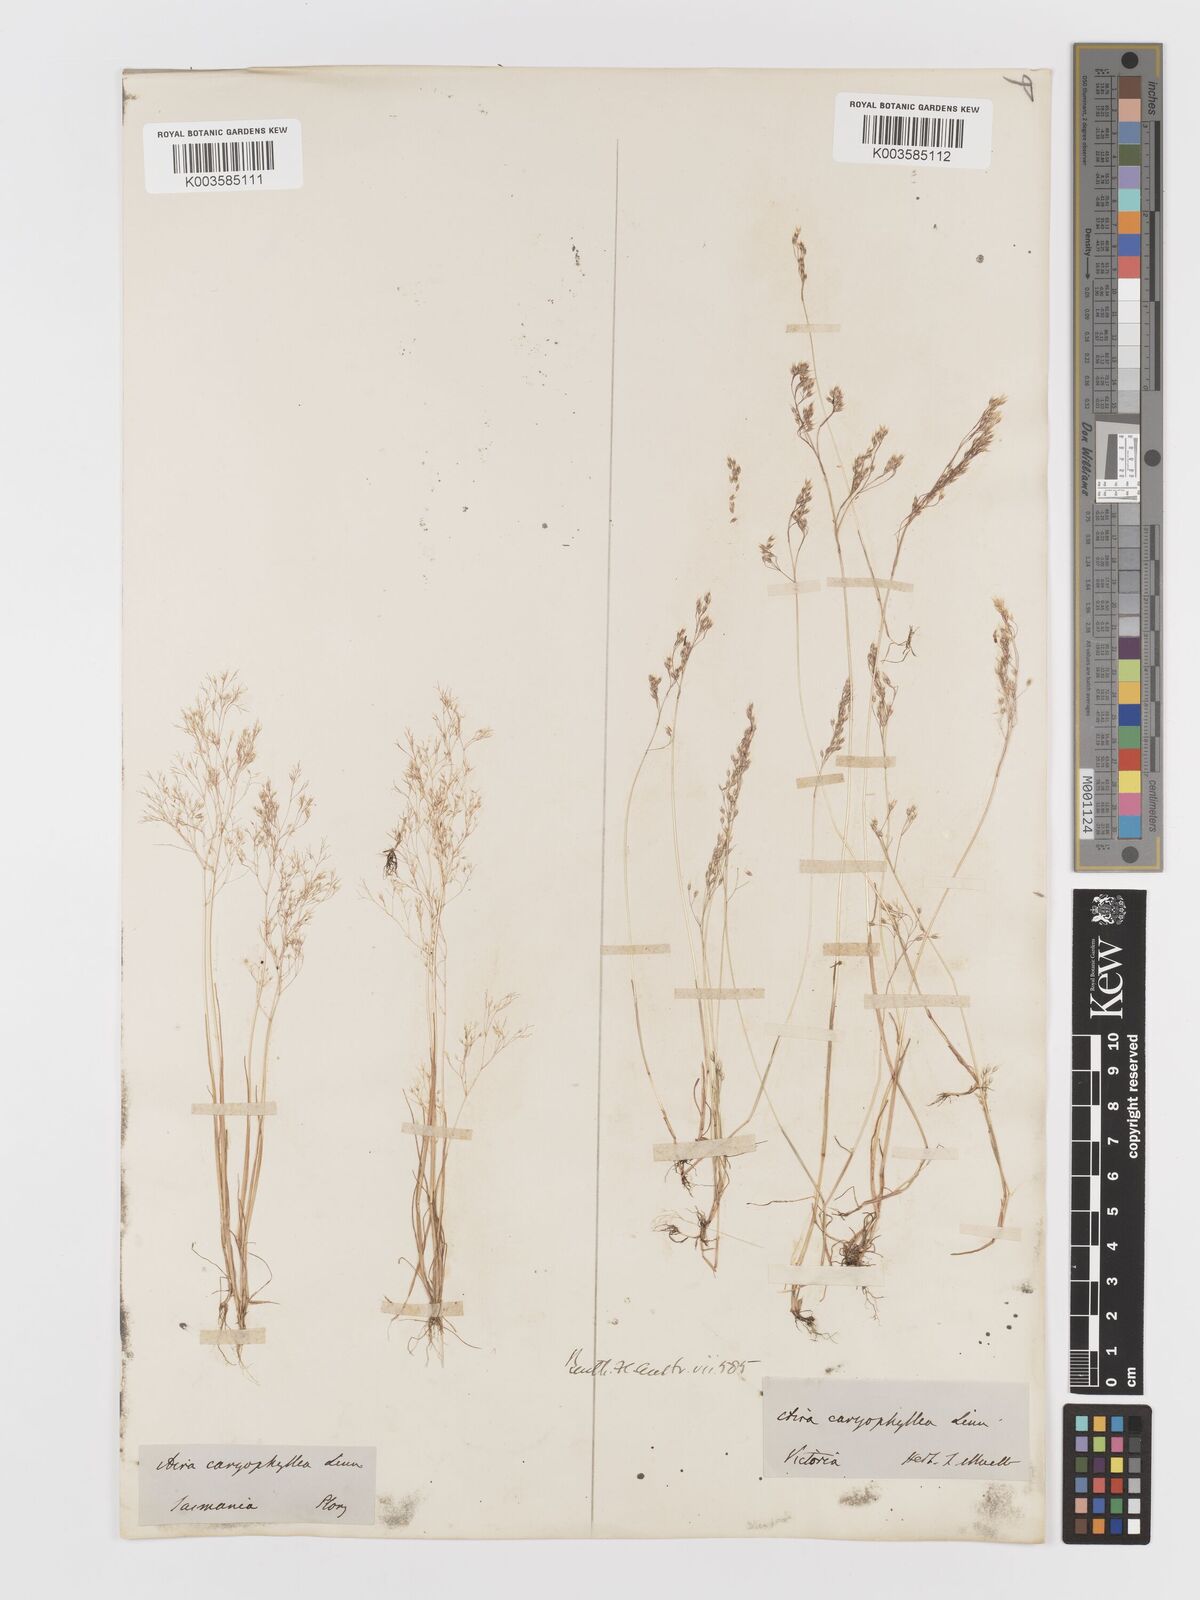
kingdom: Plantae
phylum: Tracheophyta
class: Liliopsida
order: Poales
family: Poaceae
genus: Aira
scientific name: Aira caryophyllea
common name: Silver hairgrass
